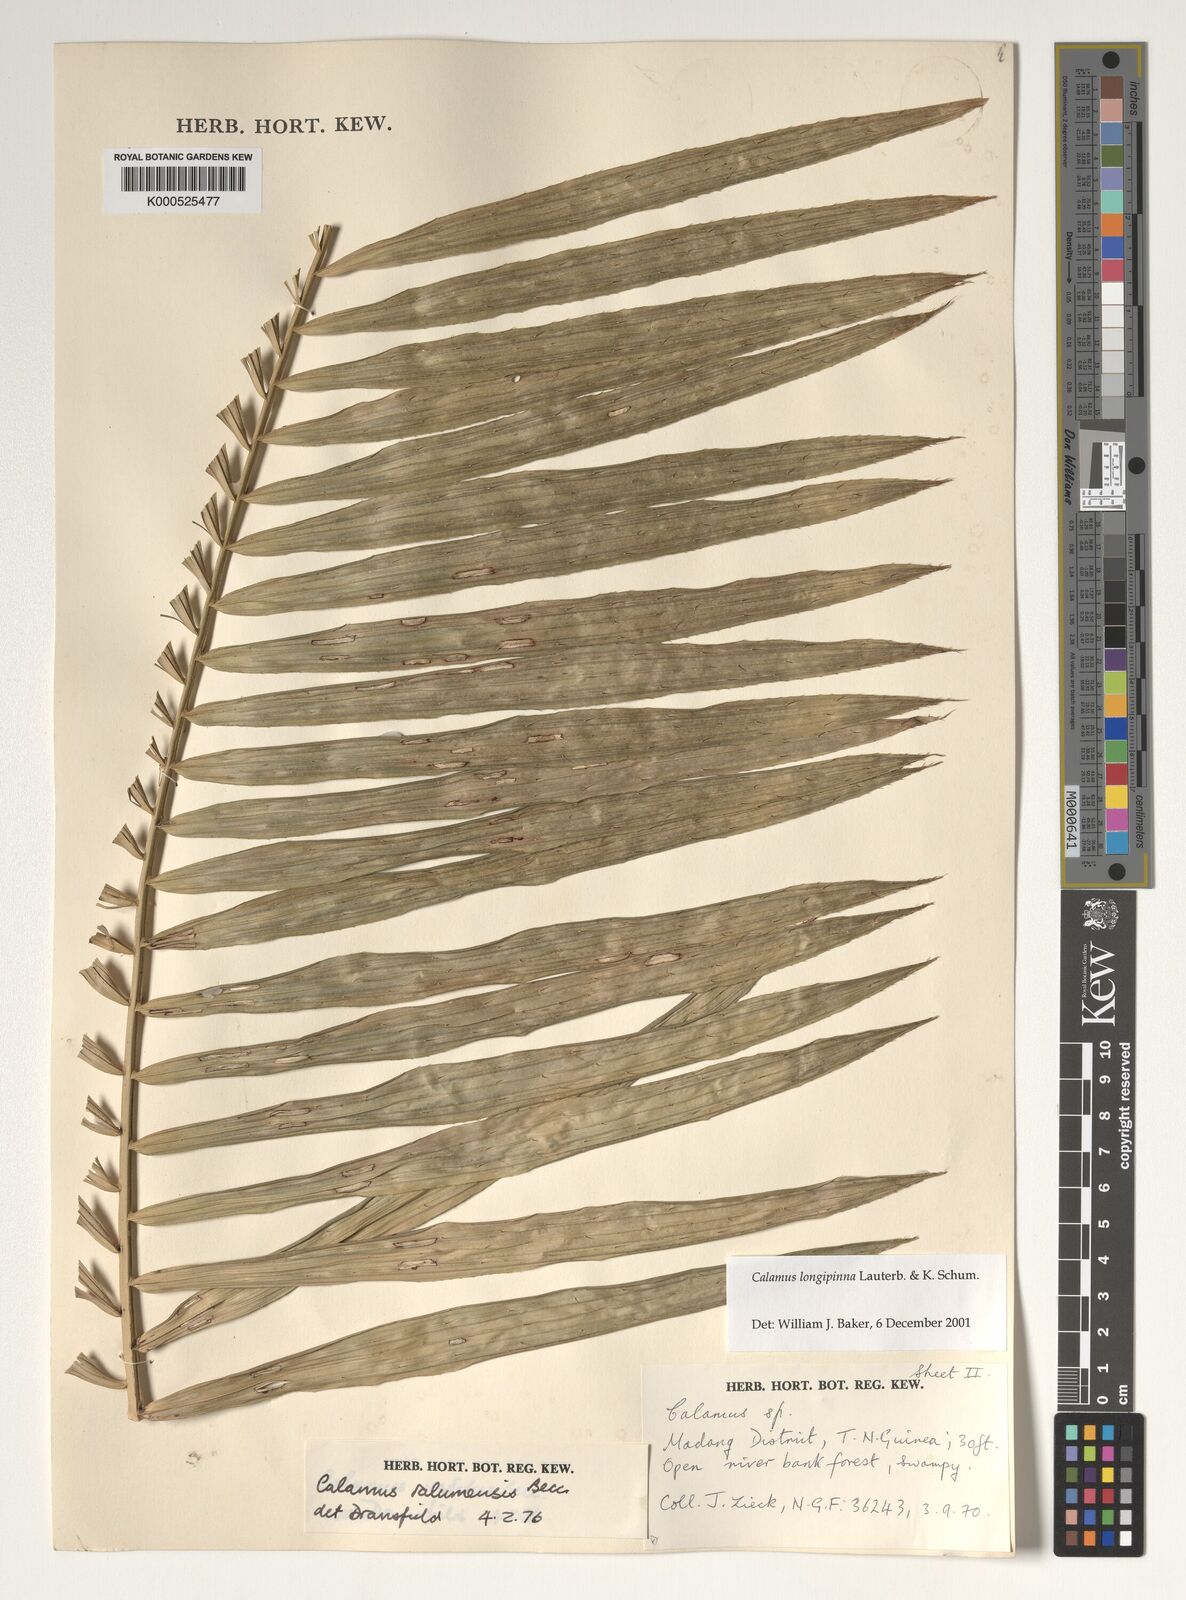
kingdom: Plantae
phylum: Tracheophyta
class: Liliopsida
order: Arecales
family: Arecaceae
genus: Calamus
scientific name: Calamus longipinna
